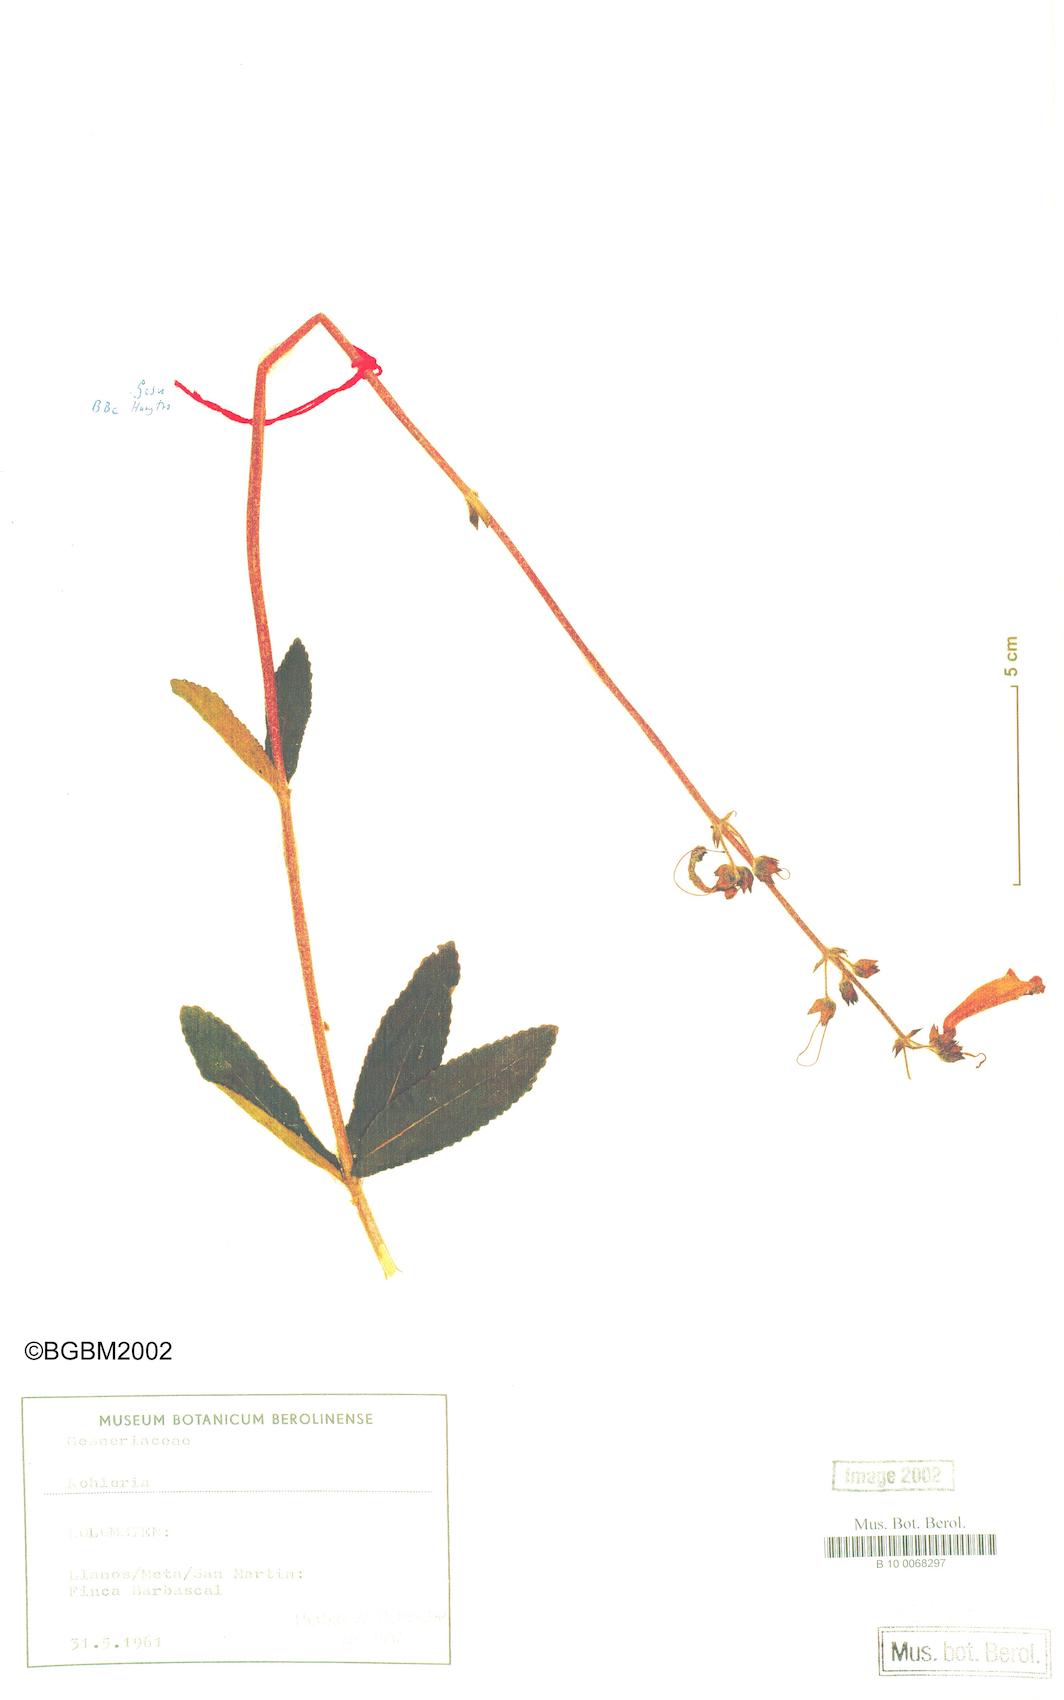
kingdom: Plantae
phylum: Tracheophyta
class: Magnoliopsida
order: Lamiales
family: Gesneriaceae
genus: Kohleria
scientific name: Kohleria
